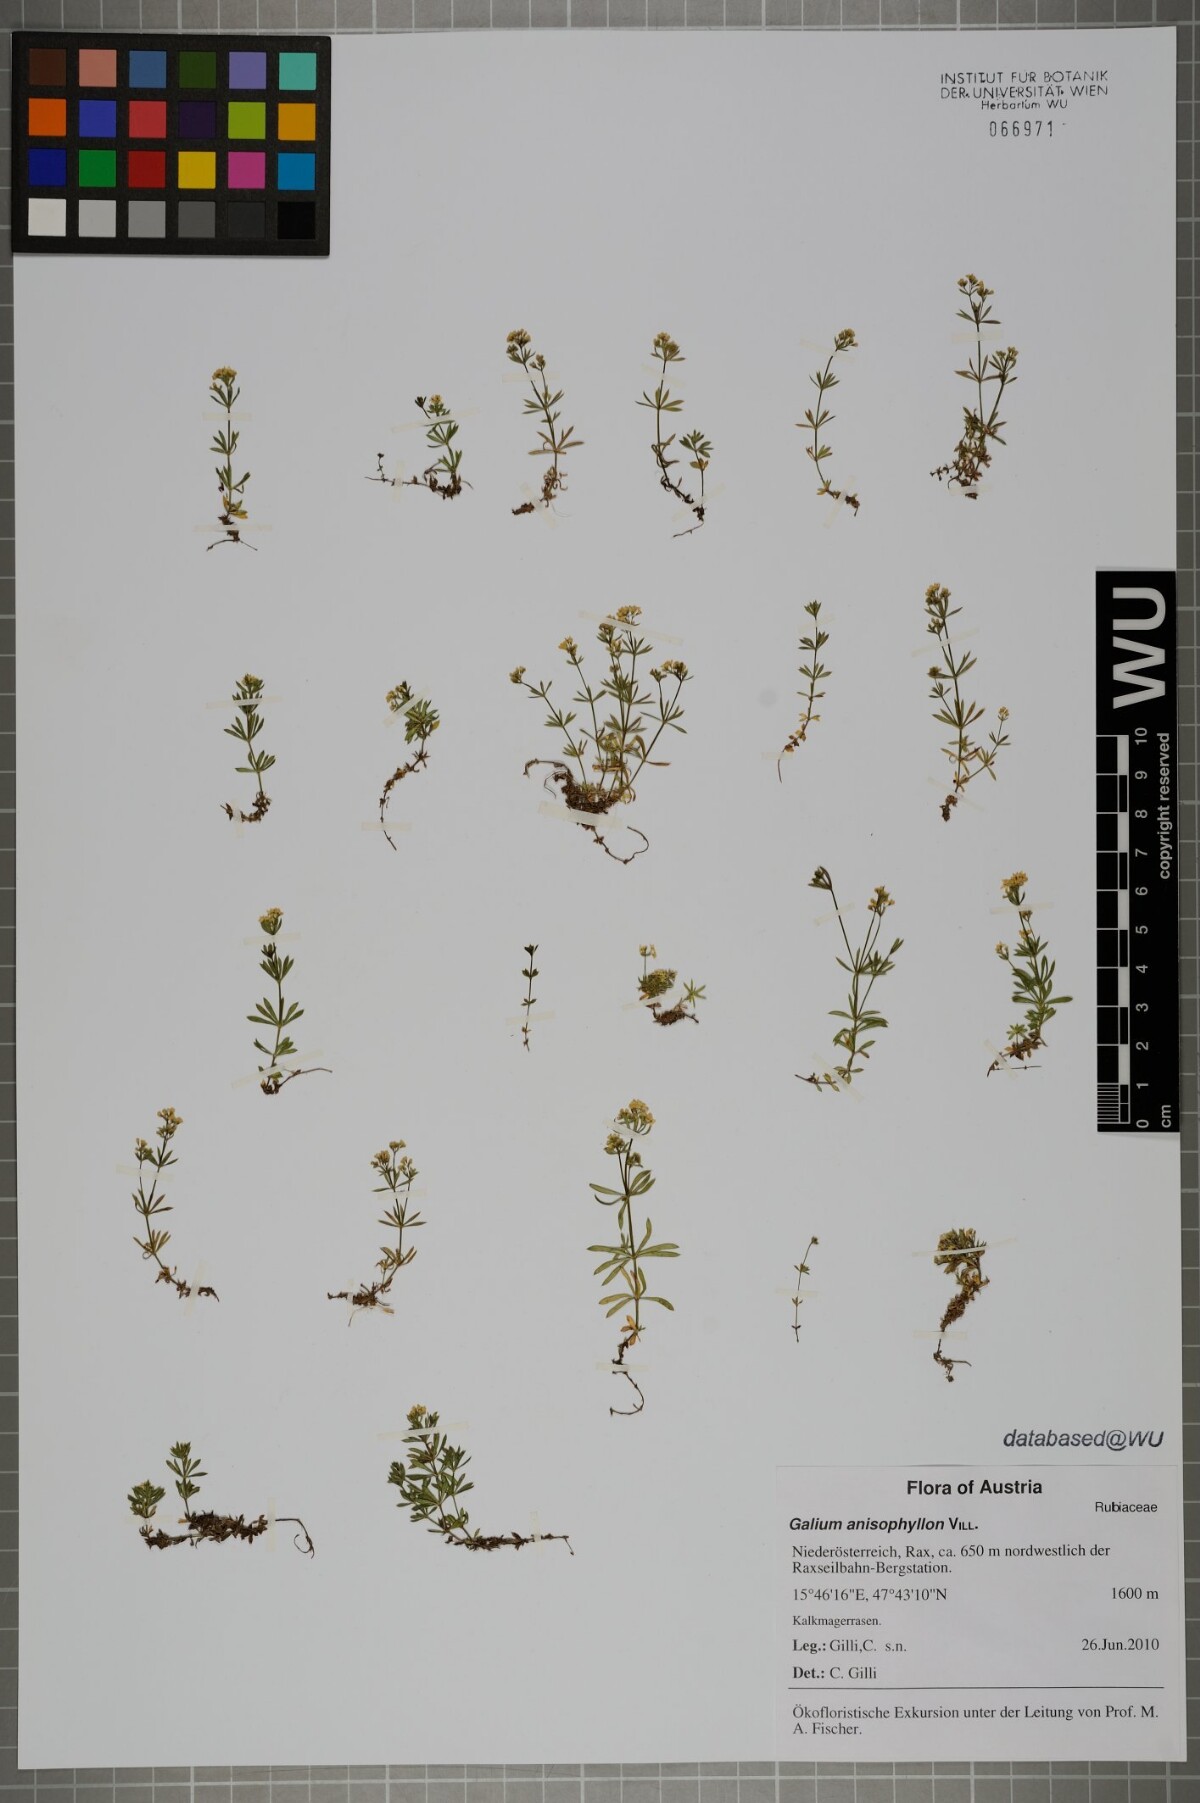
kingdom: Plantae
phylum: Tracheophyta
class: Magnoliopsida
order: Gentianales
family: Rubiaceae
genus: Galium
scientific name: Galium anisophyllon
